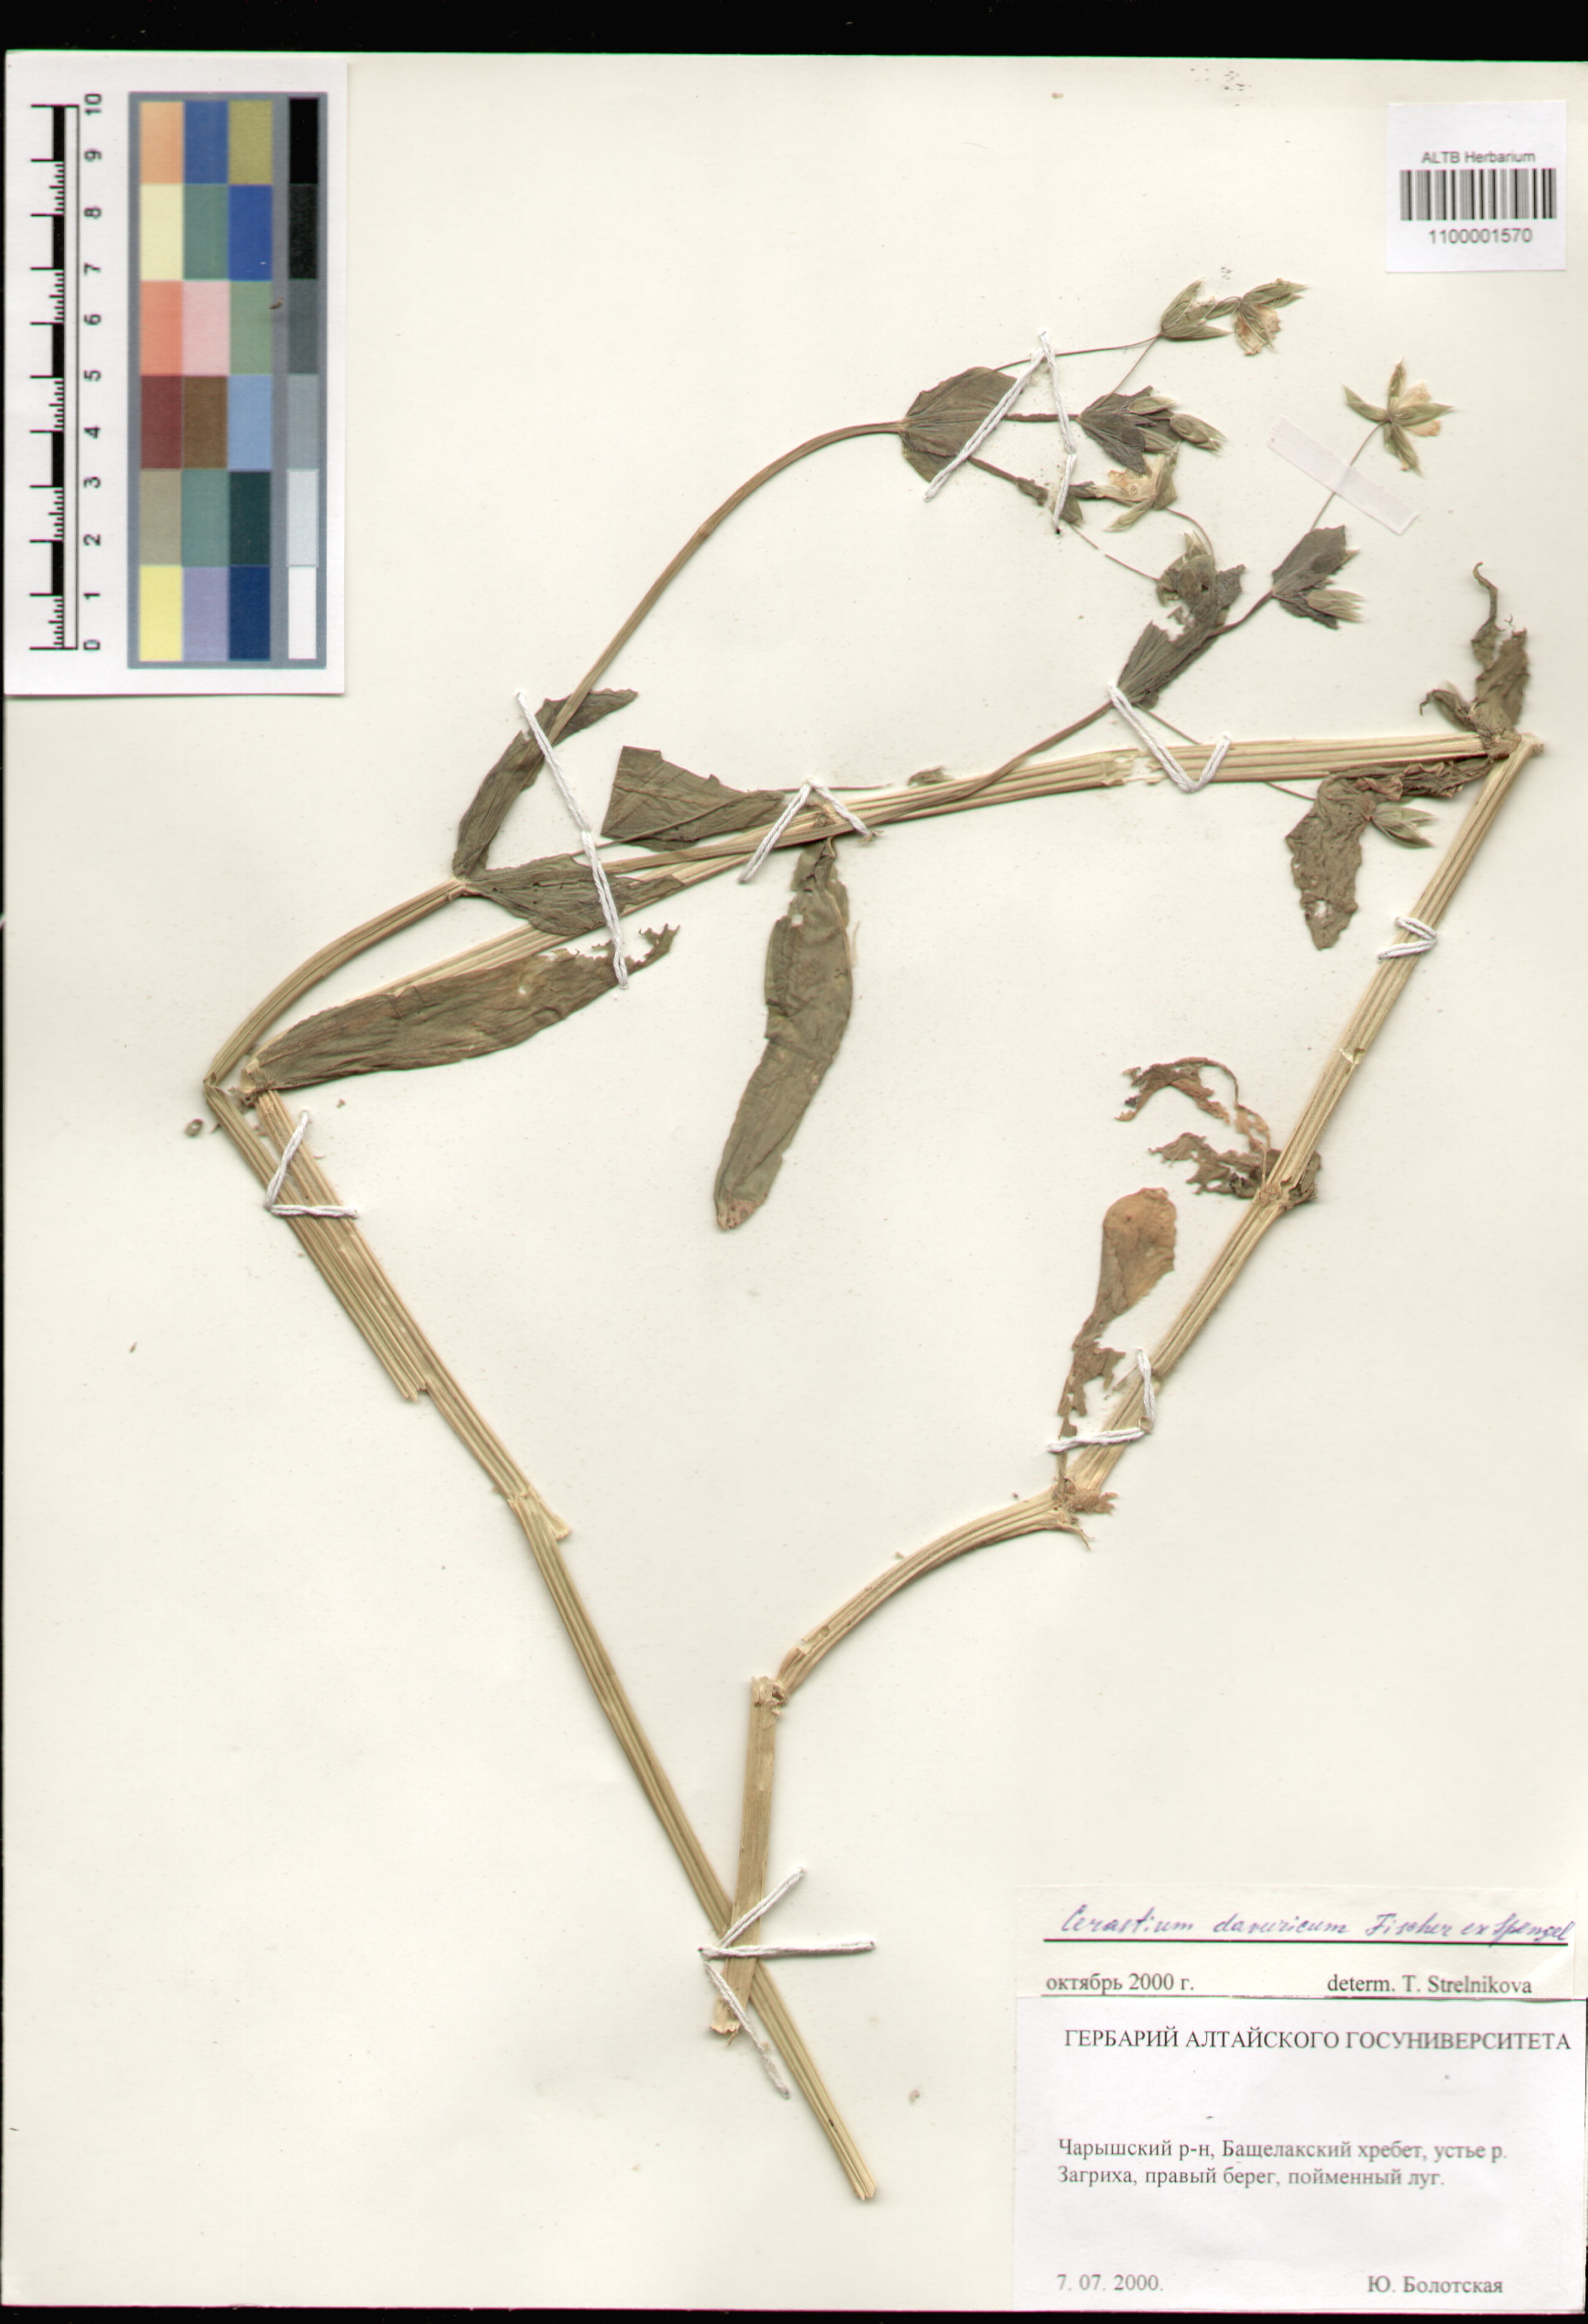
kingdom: Plantae
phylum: Tracheophyta
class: Magnoliopsida
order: Caryophyllales
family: Caryophyllaceae
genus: Dichodon
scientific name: Dichodon davuricum
